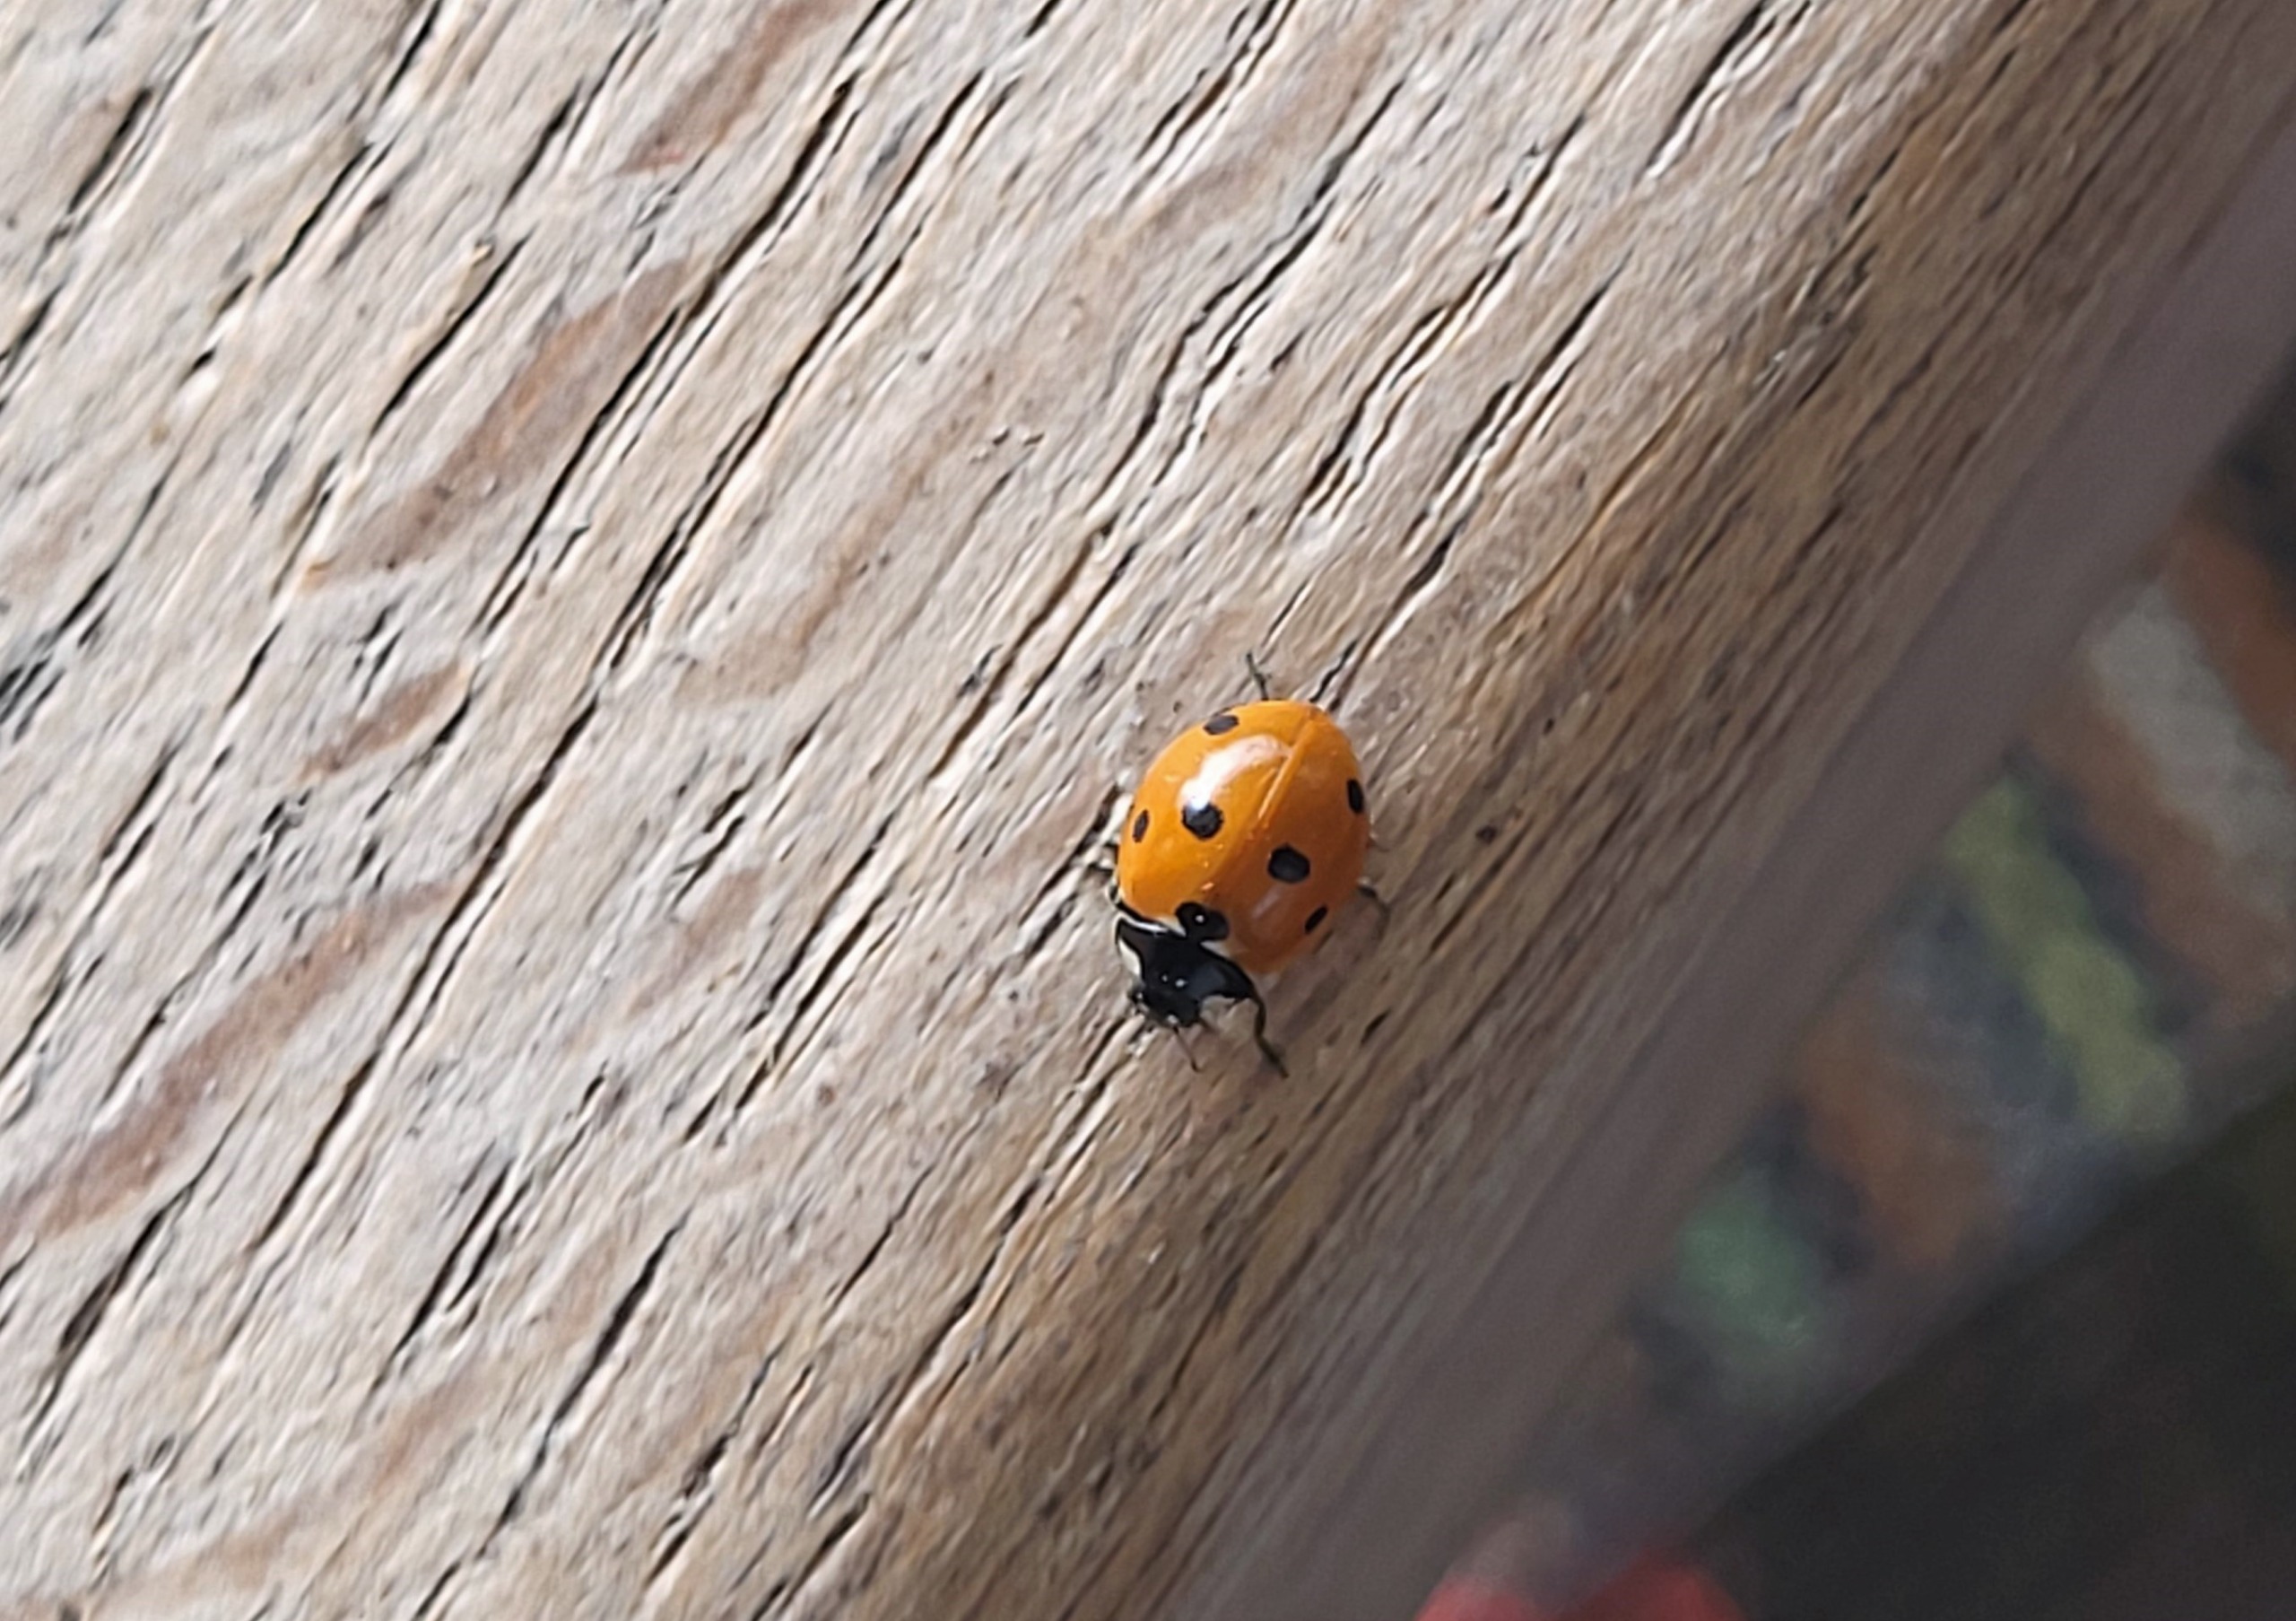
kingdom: Animalia
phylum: Arthropoda
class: Insecta
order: Coleoptera
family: Coccinellidae
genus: Coccinella
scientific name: Coccinella septempunctata
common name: Syvplettet mariehøne
